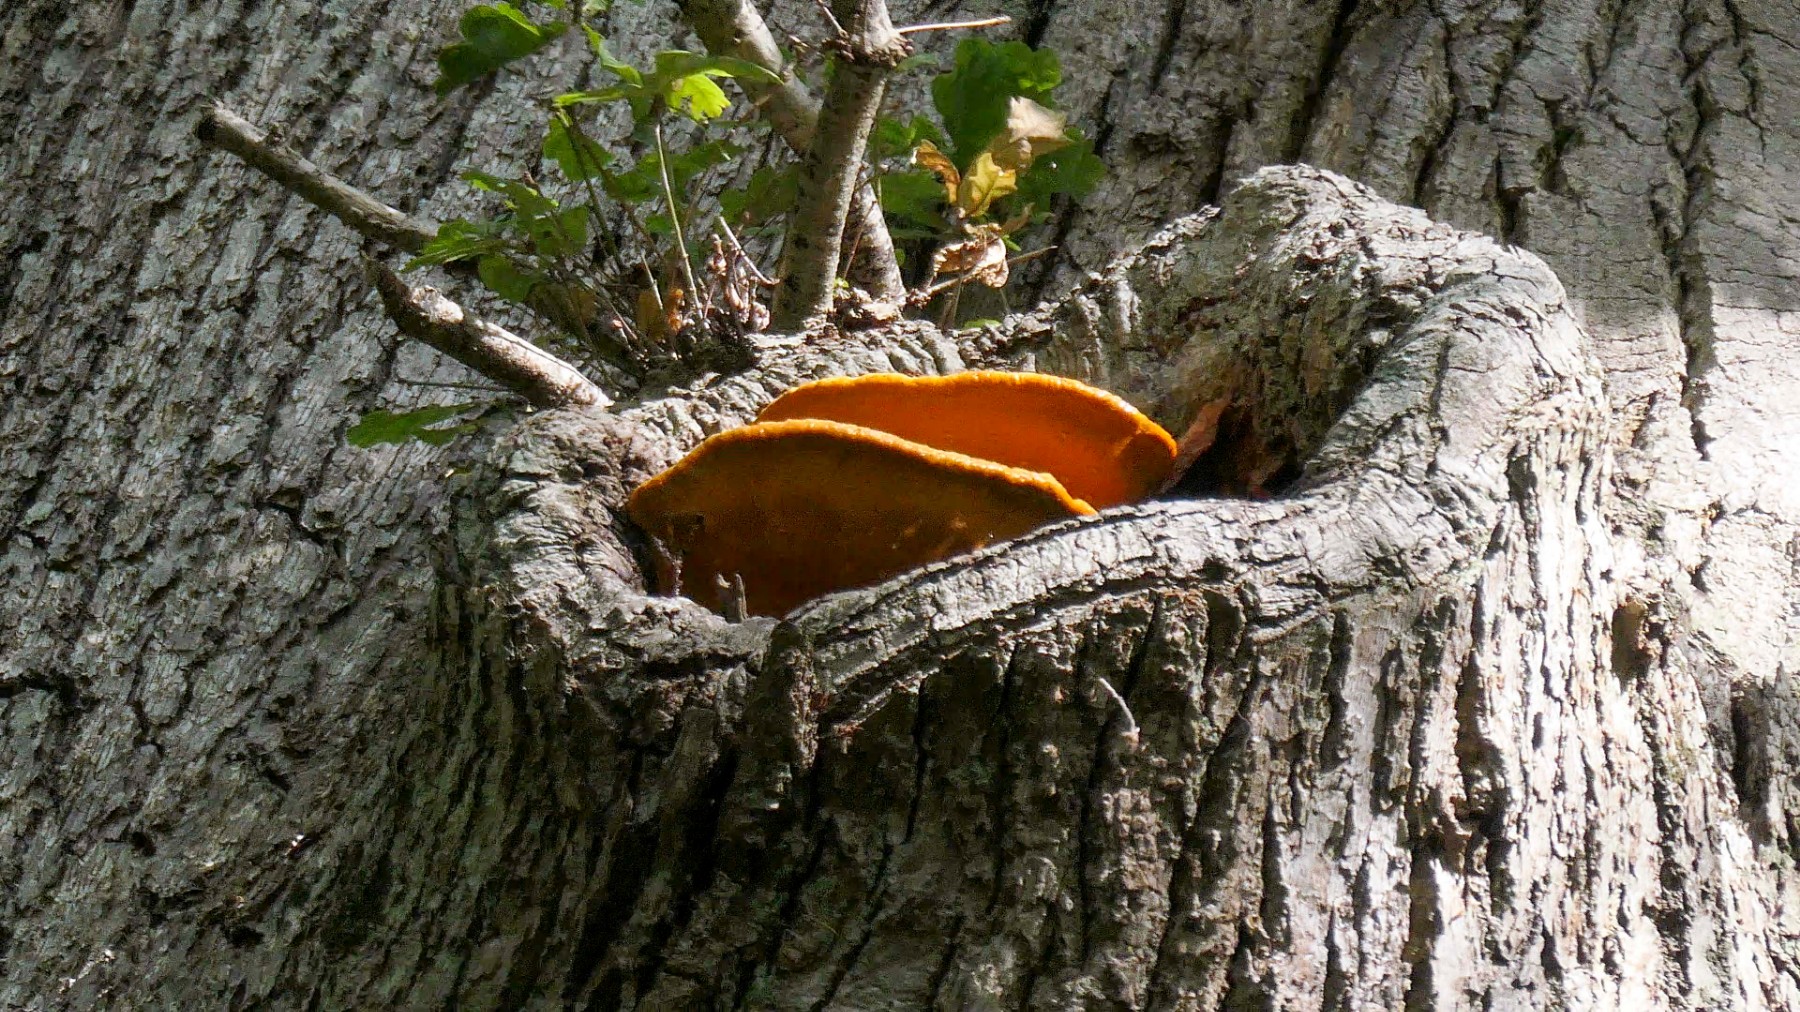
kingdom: Fungi
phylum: Basidiomycota
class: Agaricomycetes
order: Polyporales
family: Phanerochaetaceae
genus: Hapalopilus
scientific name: Hapalopilus croceus
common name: safrangul pragtporesvamp
